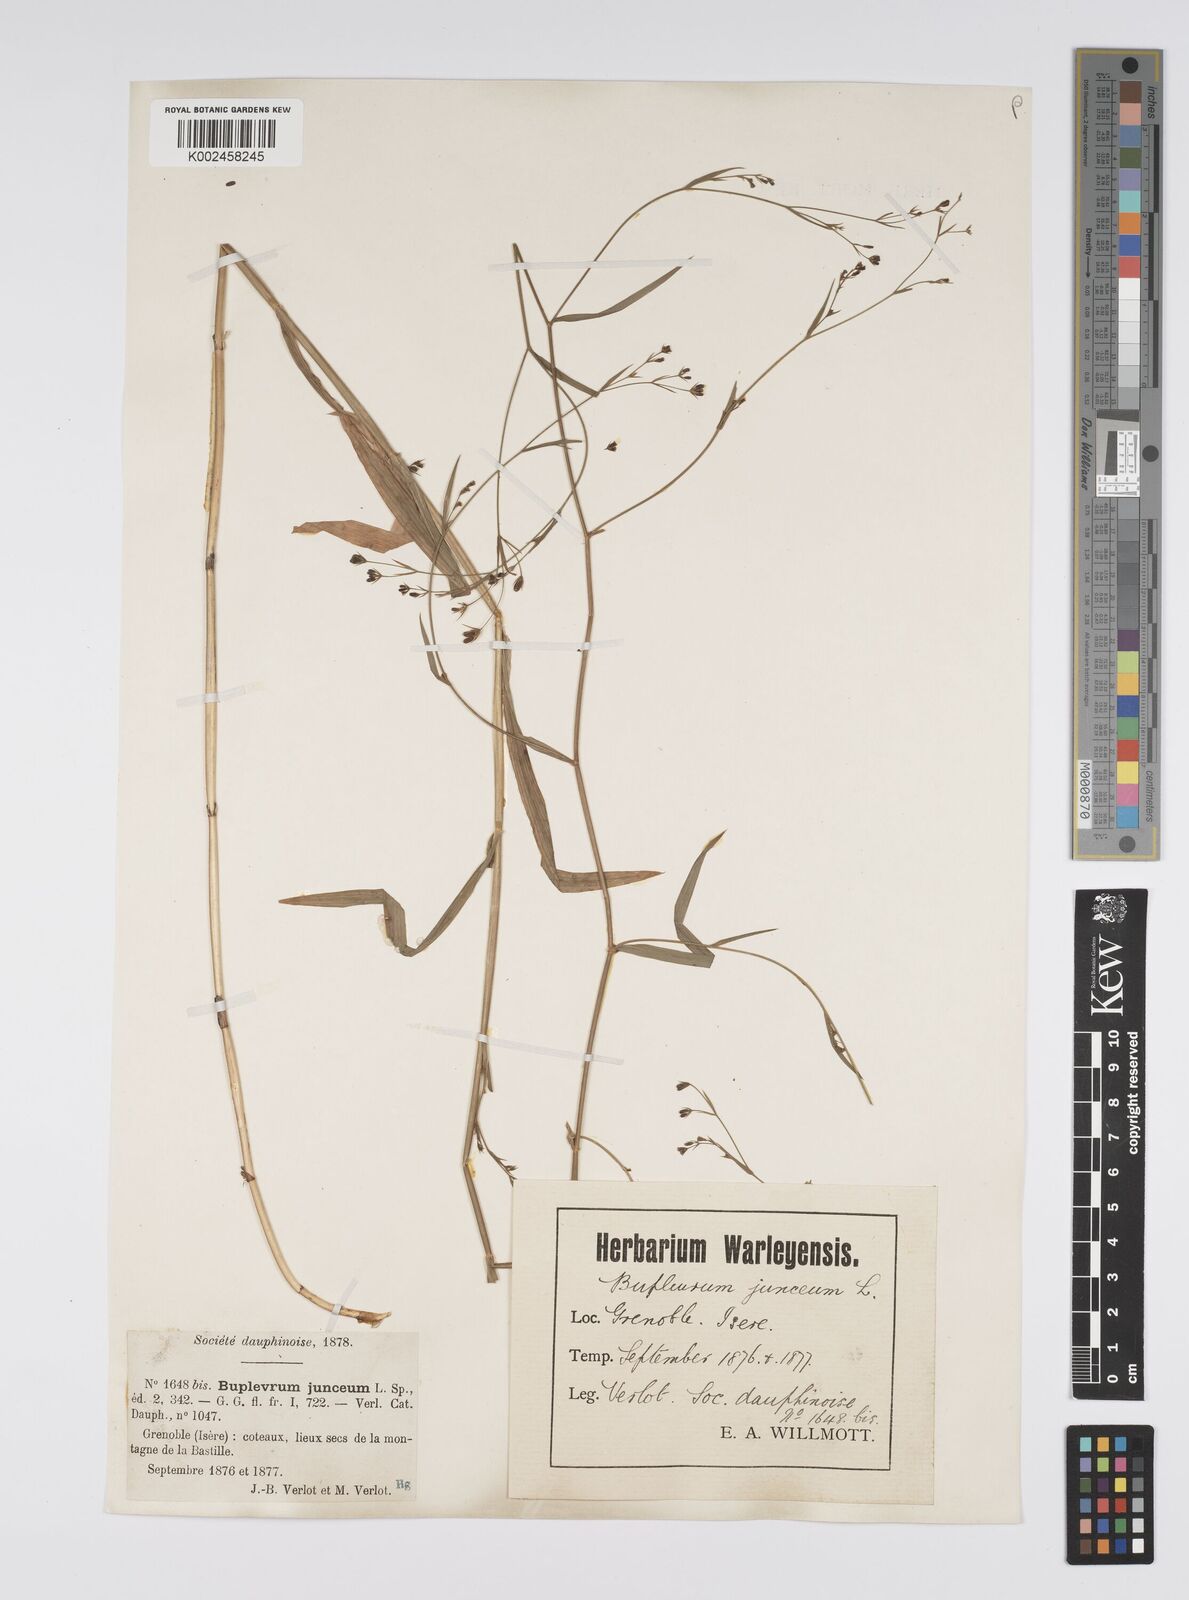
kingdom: Plantae
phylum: Tracheophyta
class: Magnoliopsida
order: Apiales
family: Apiaceae
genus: Bupleurum
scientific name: Bupleurum praealtum
